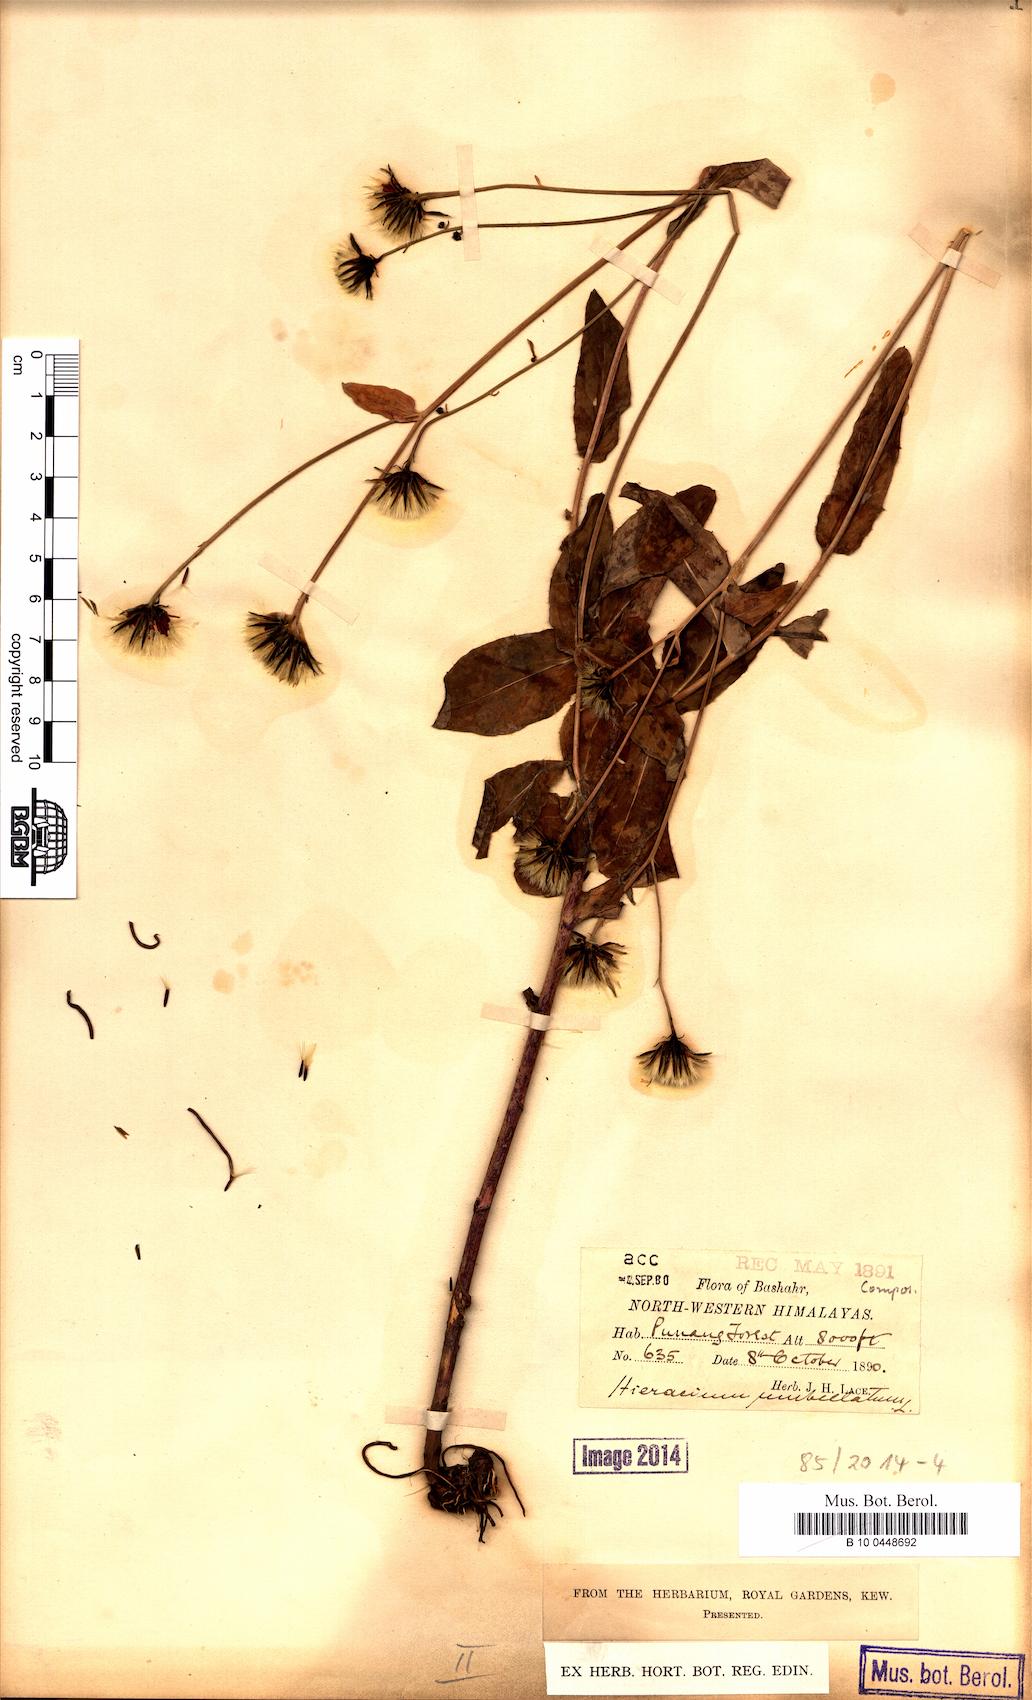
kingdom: Plantae
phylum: Tracheophyta
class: Magnoliopsida
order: Asterales
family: Asteraceae
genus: Hieracium
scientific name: Hieracium umbellatum
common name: Northern hawkweed
